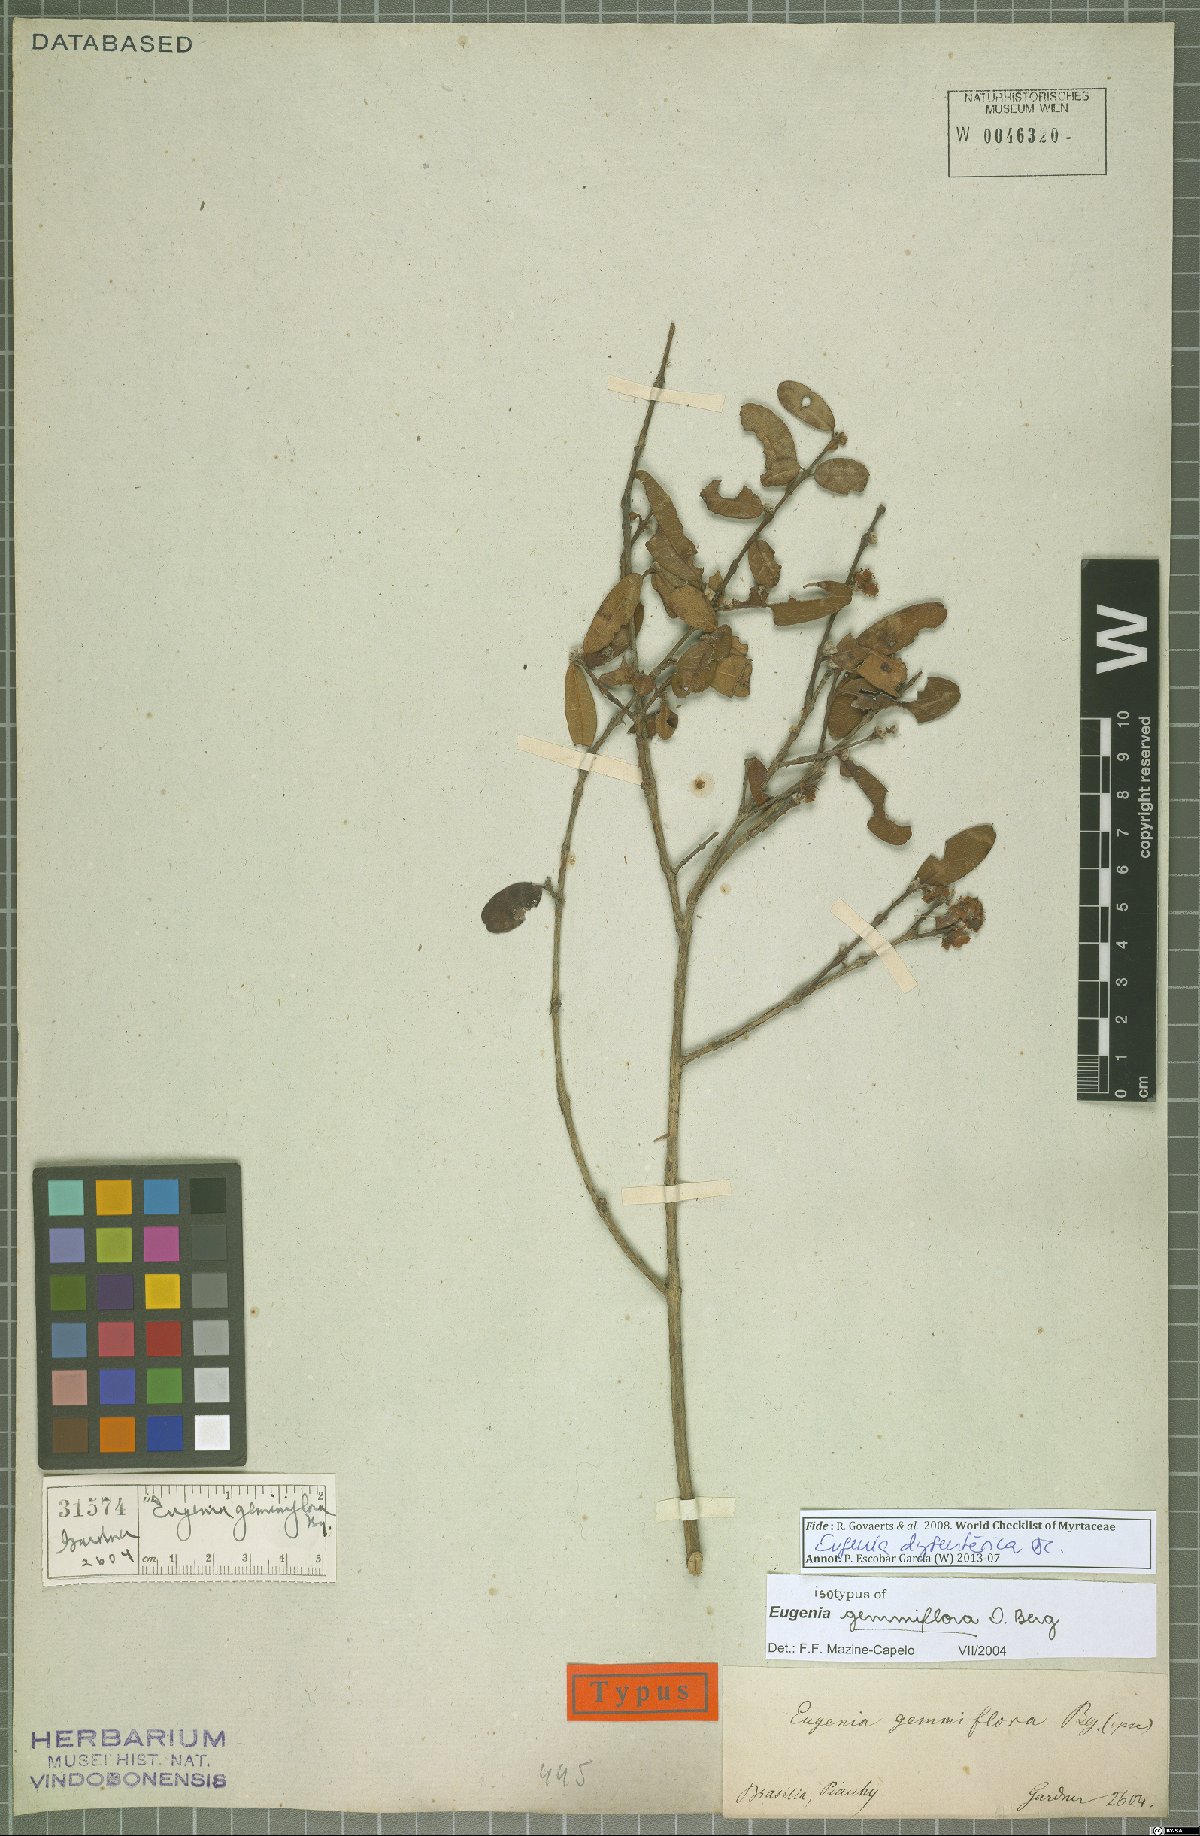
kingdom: Plantae
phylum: Tracheophyta
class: Magnoliopsida
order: Myrtales
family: Myrtaceae
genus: Eugenia
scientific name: Eugenia dysenterica
